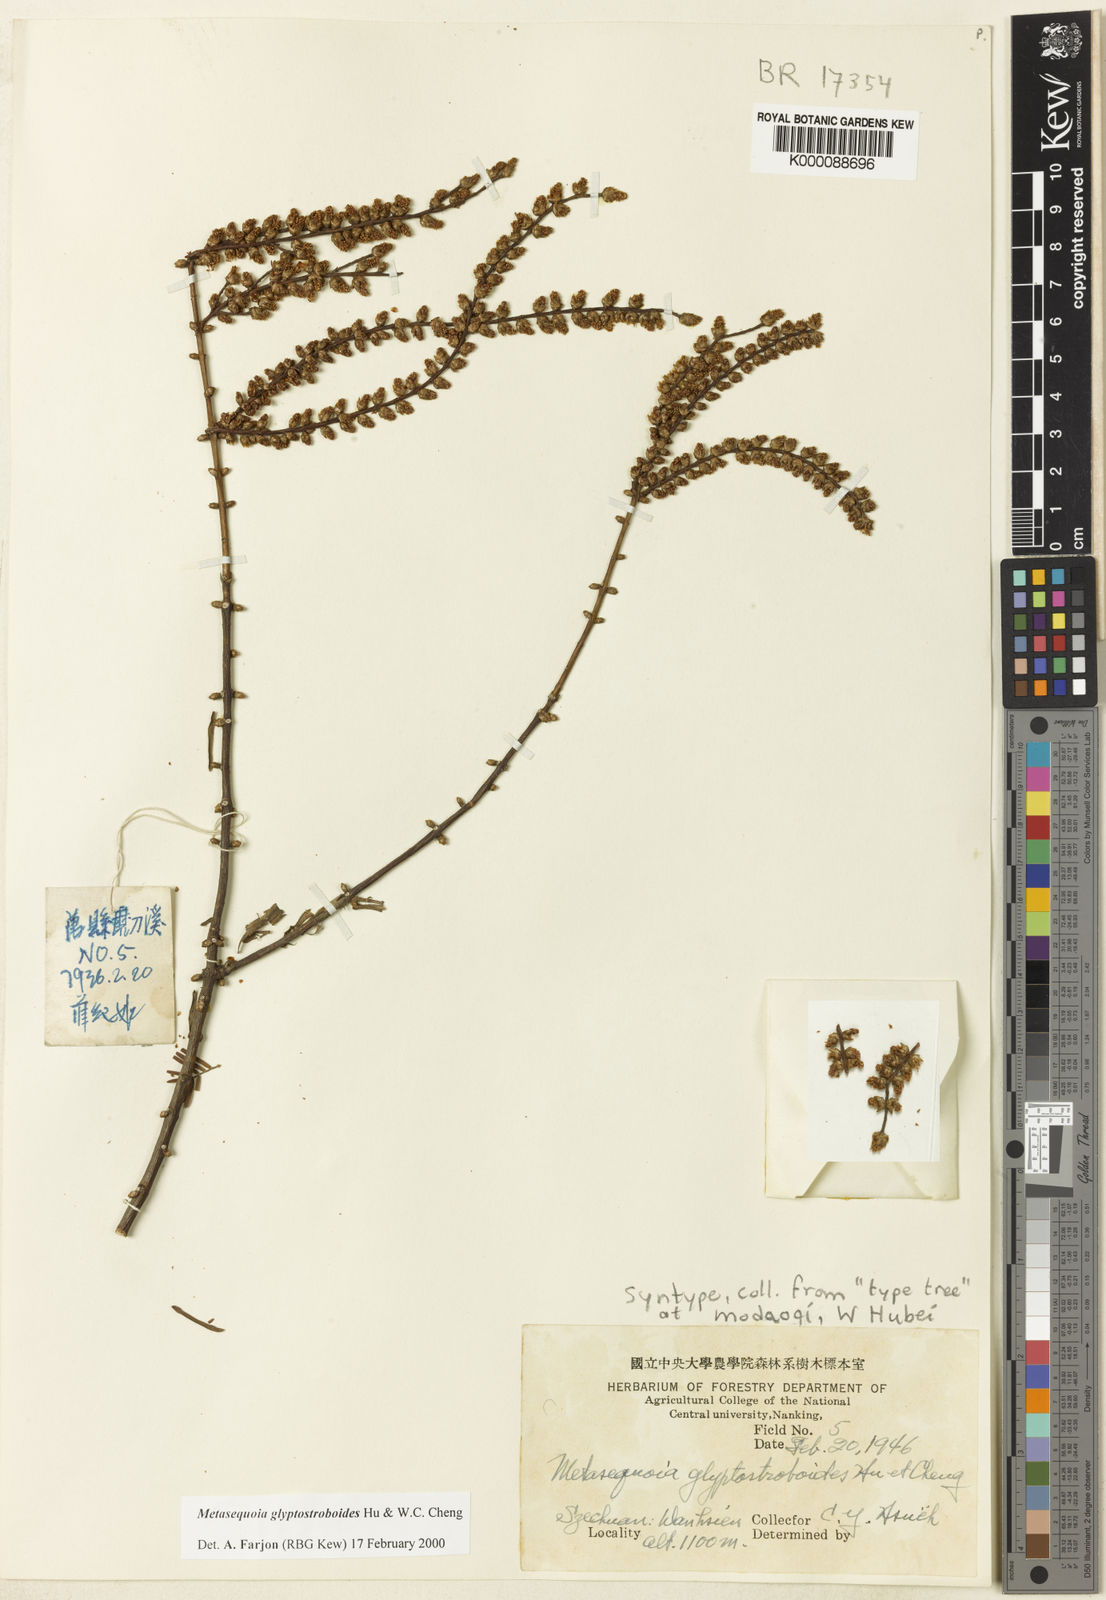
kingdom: Plantae
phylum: Tracheophyta
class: Pinopsida
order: Pinales
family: Cupressaceae
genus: Metasequoia
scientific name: Metasequoia glyptostroboides
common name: Dawn redwood
